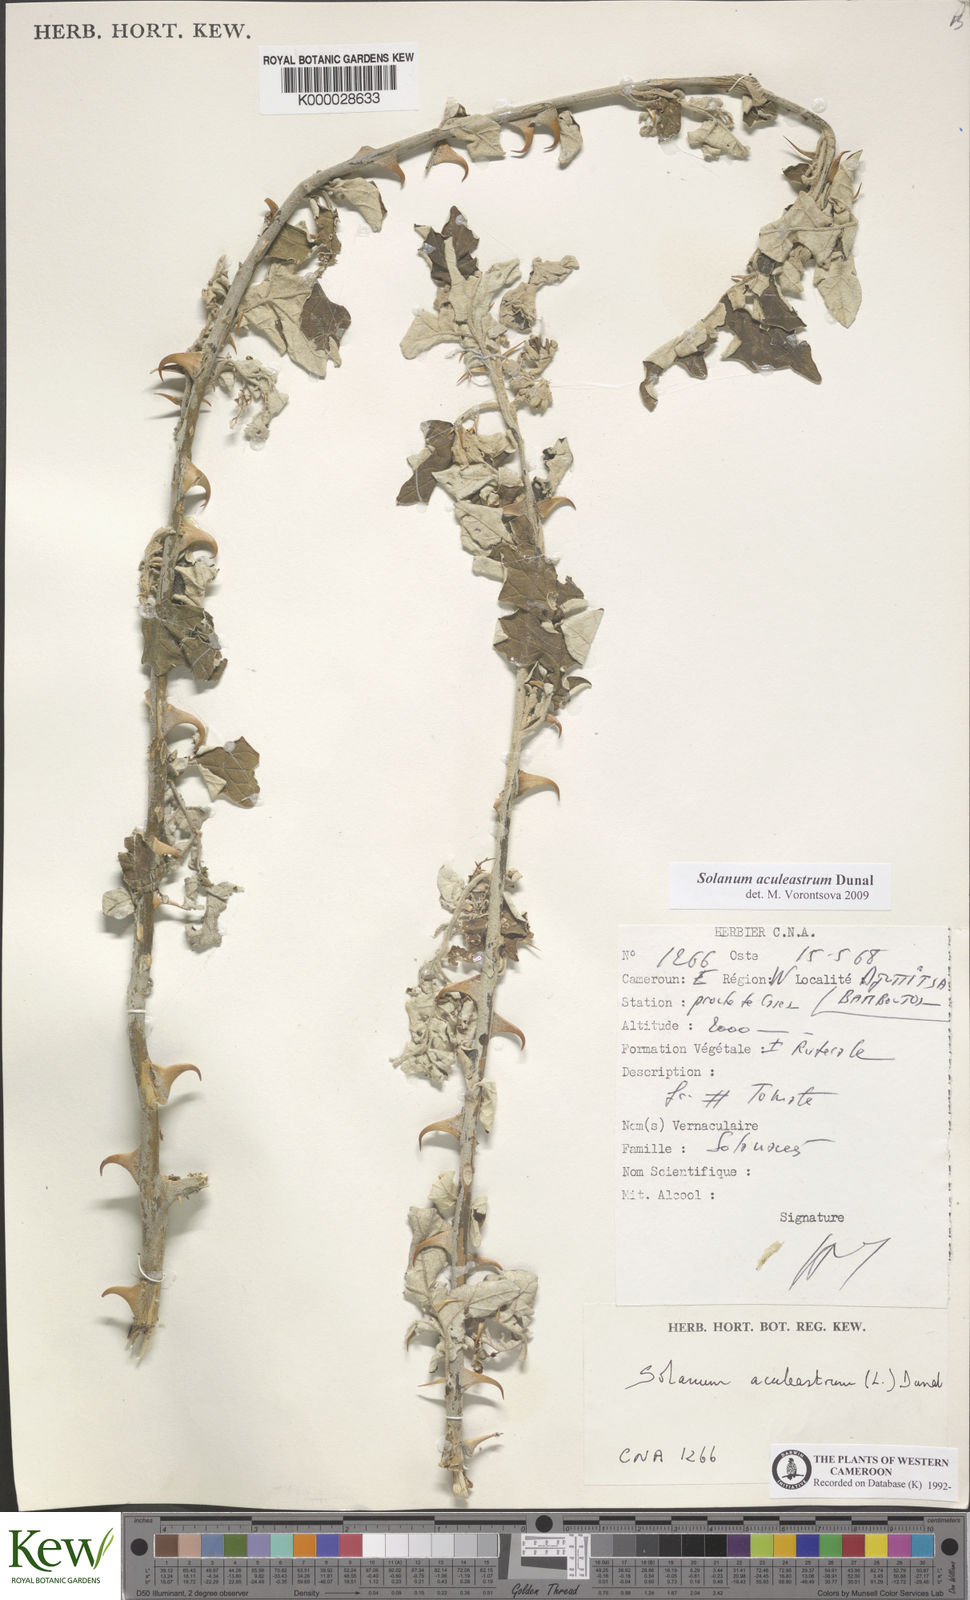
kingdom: Plantae
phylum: Tracheophyta
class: Magnoliopsida
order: Solanales
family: Solanaceae
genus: Solanum
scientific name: Solanum aculeastrum
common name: Goat bitter-apple
